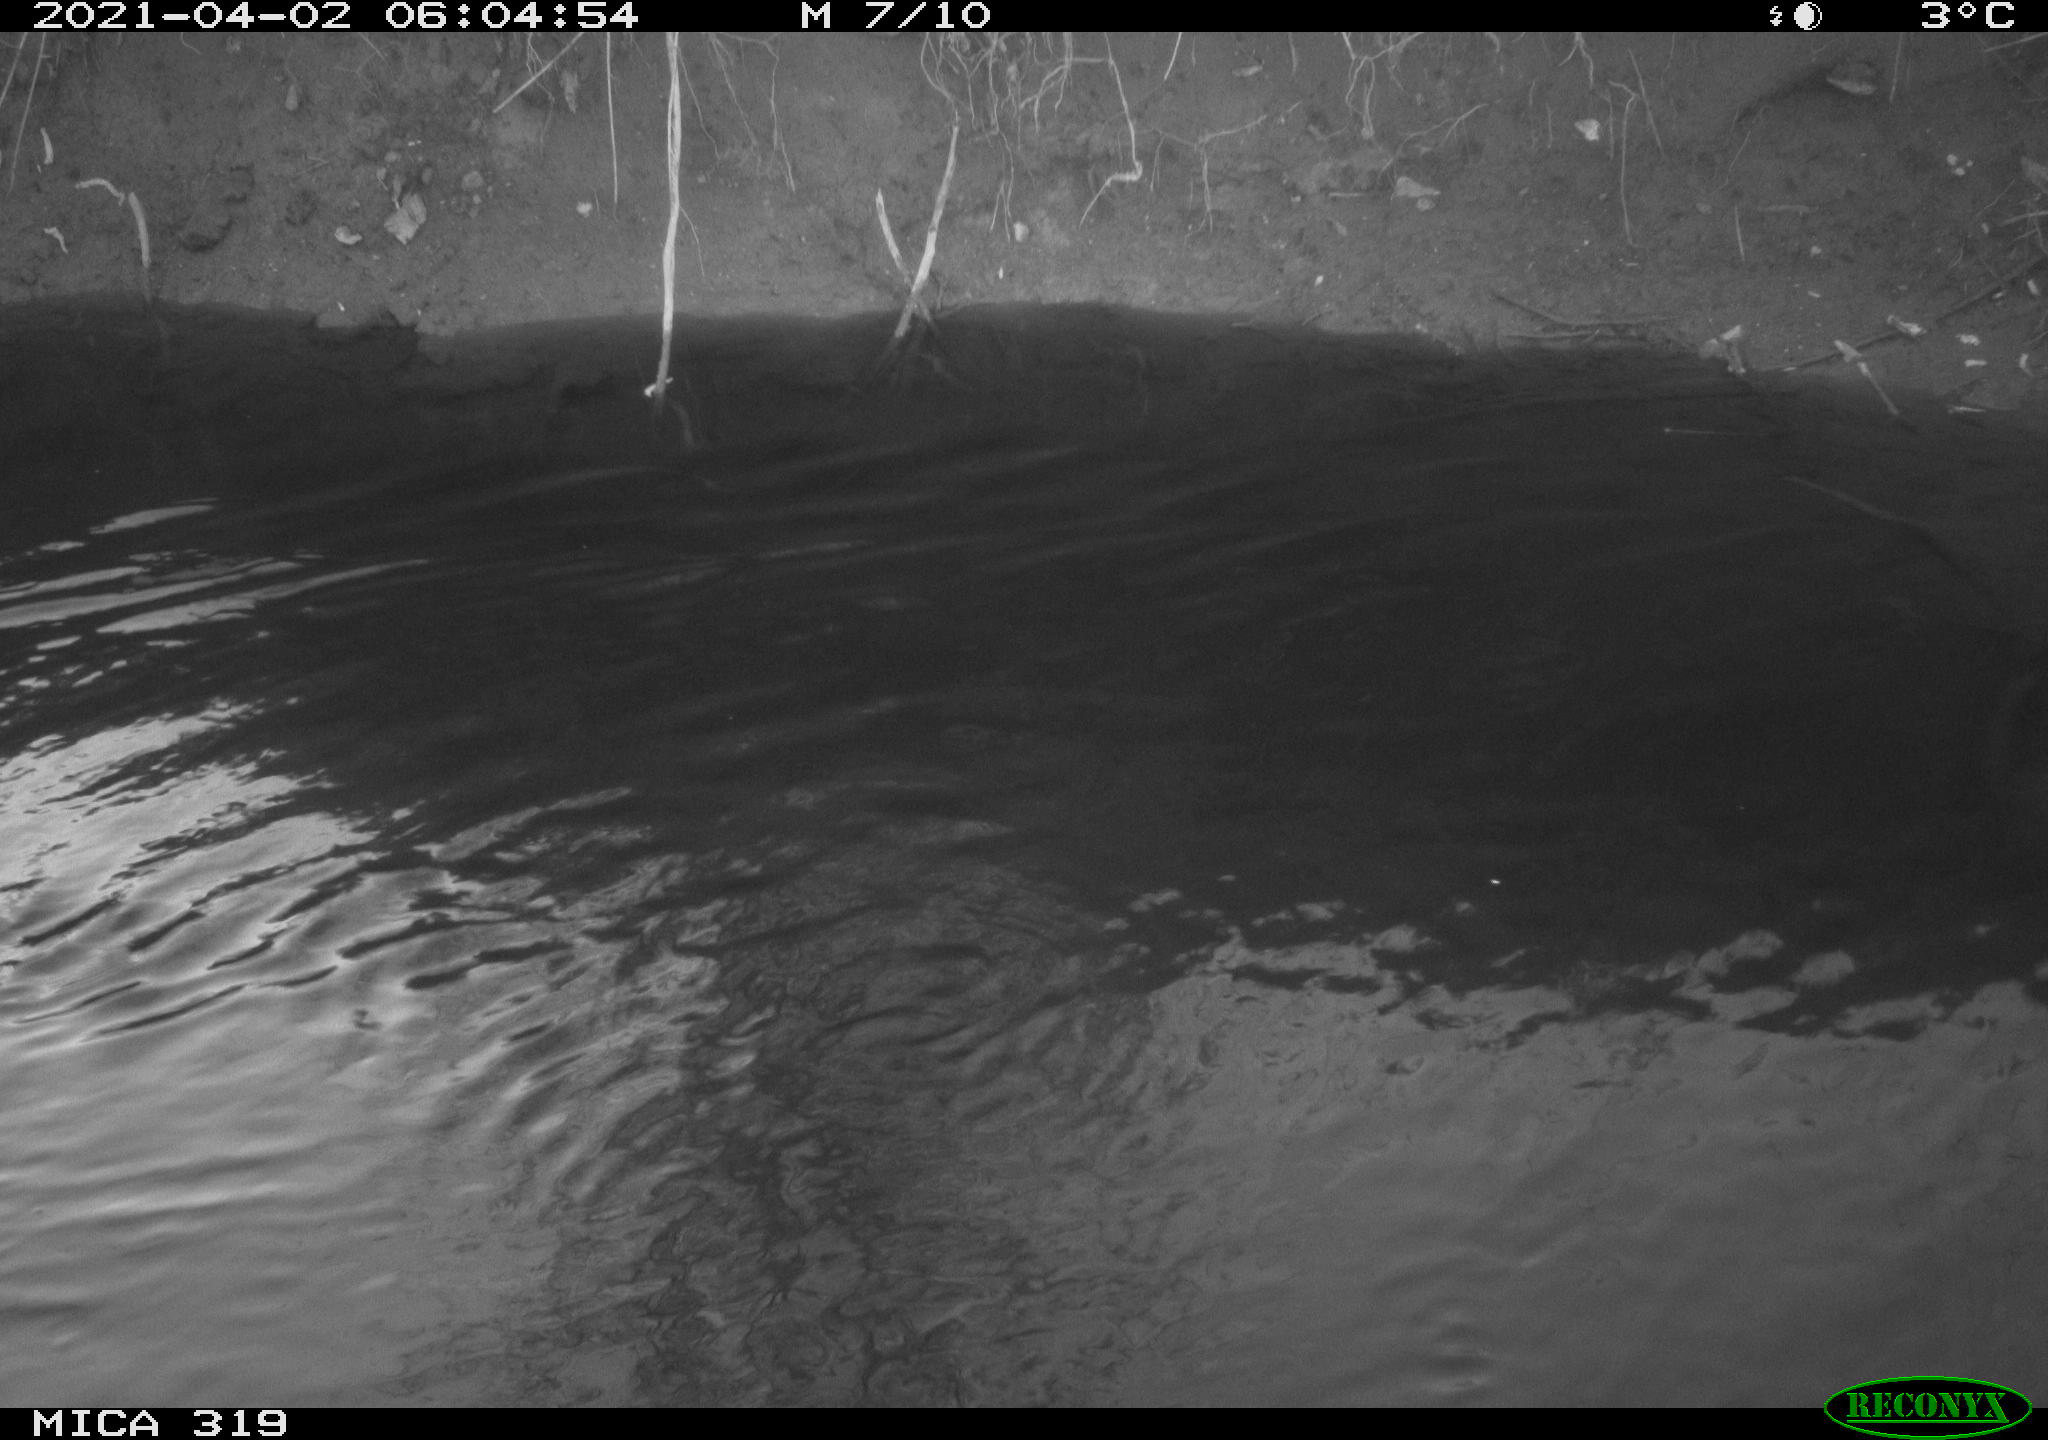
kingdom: Animalia
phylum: Chordata
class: Aves
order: Anseriformes
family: Anatidae
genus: Anas
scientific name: Anas platyrhynchos
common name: Mallard
